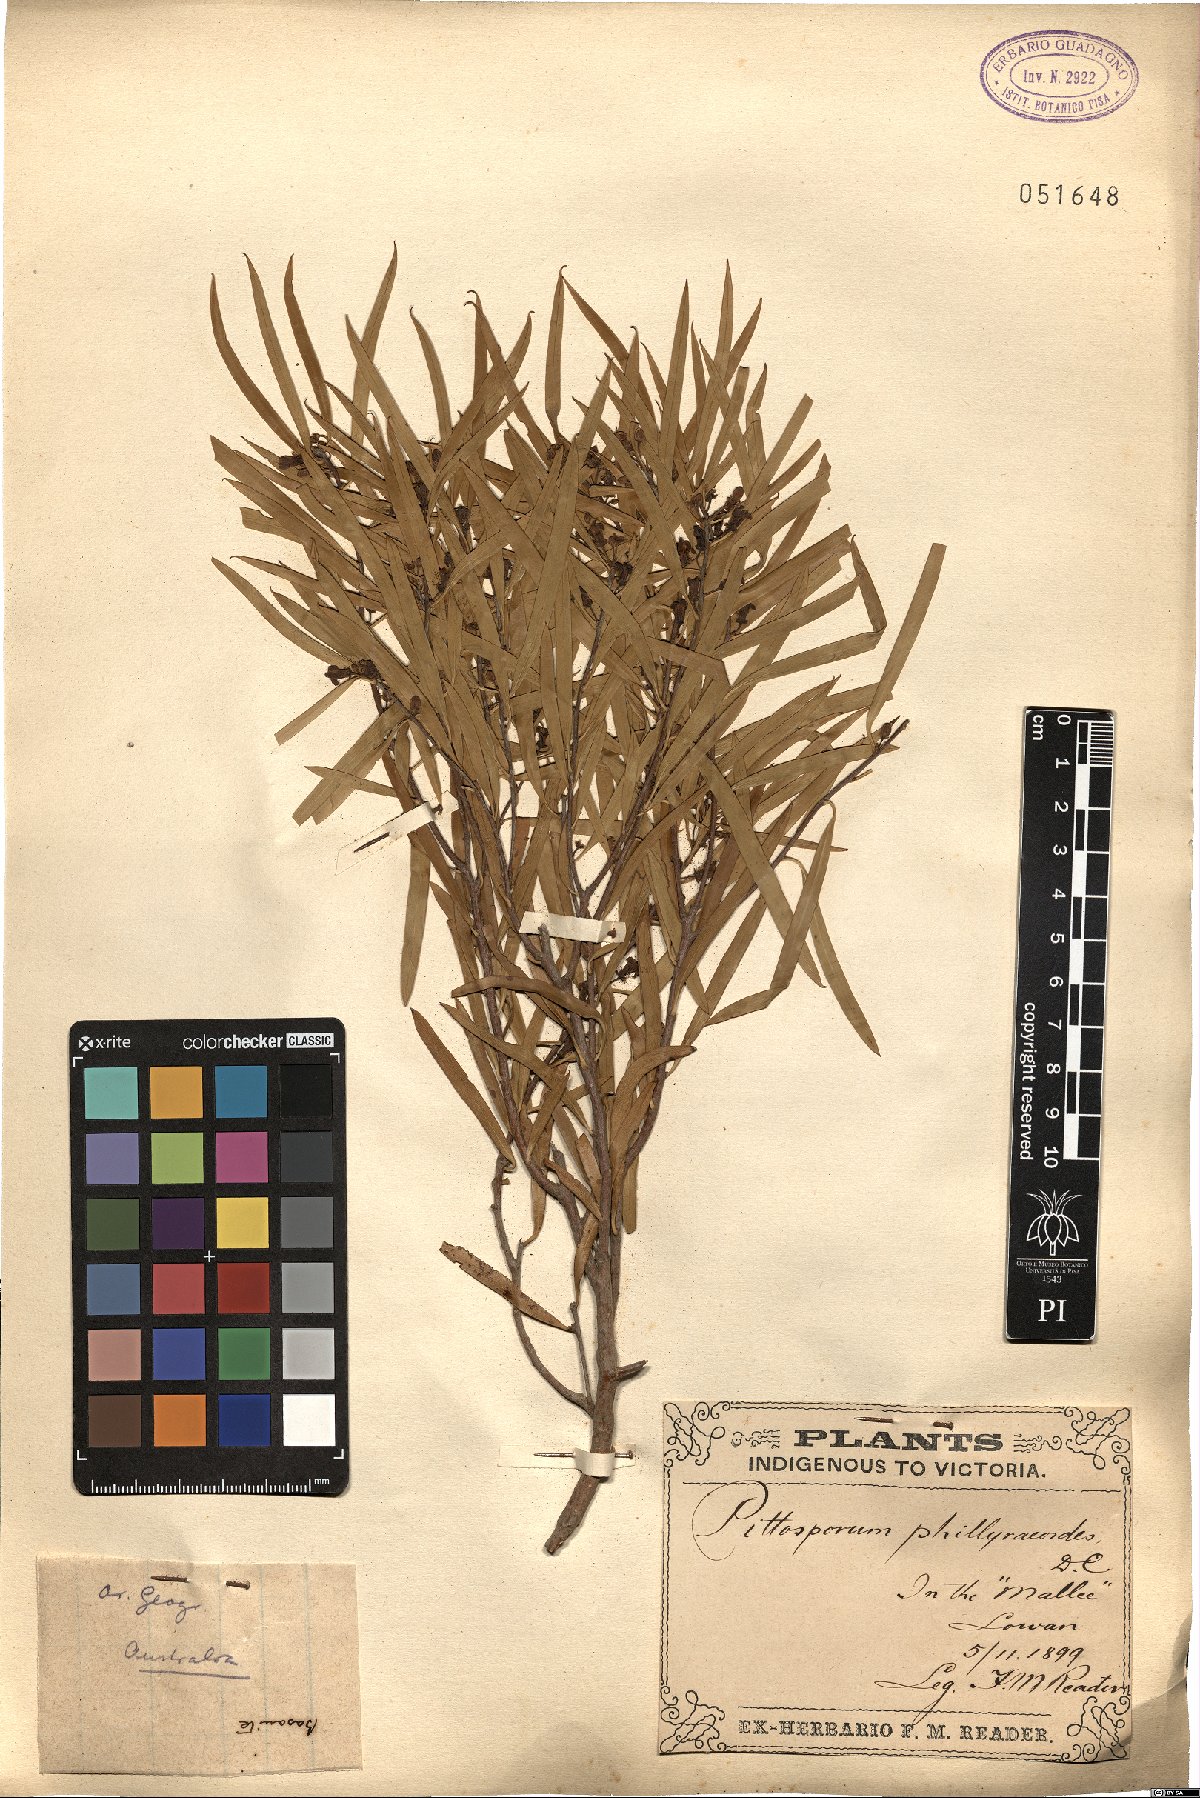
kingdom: Plantae
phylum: Tracheophyta
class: Magnoliopsida
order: Apiales
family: Pittosporaceae
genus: Pittosporum
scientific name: Pittosporum phillyreoides
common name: Willow pittosporum
